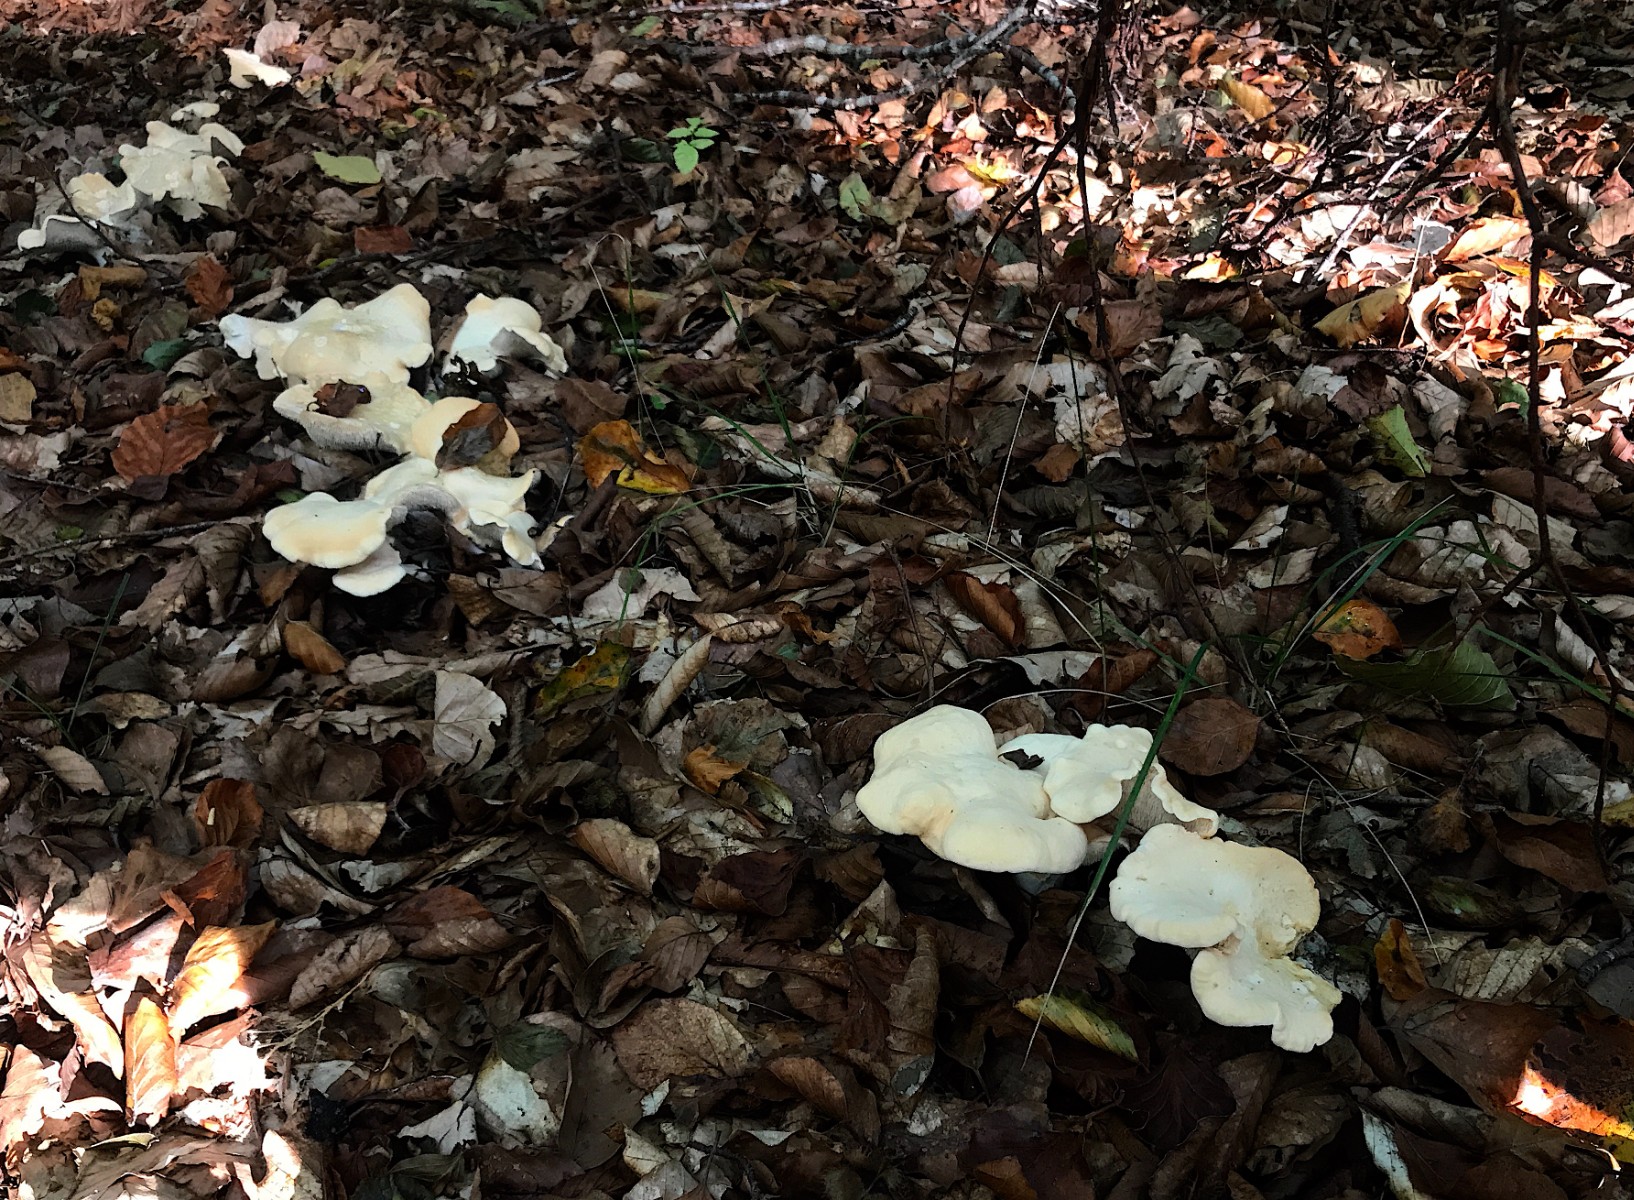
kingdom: Fungi
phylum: Basidiomycota
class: Agaricomycetes
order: Cantharellales
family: Hydnaceae
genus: Hydnum
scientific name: Hydnum repandum
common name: almindelig pigsvamp
